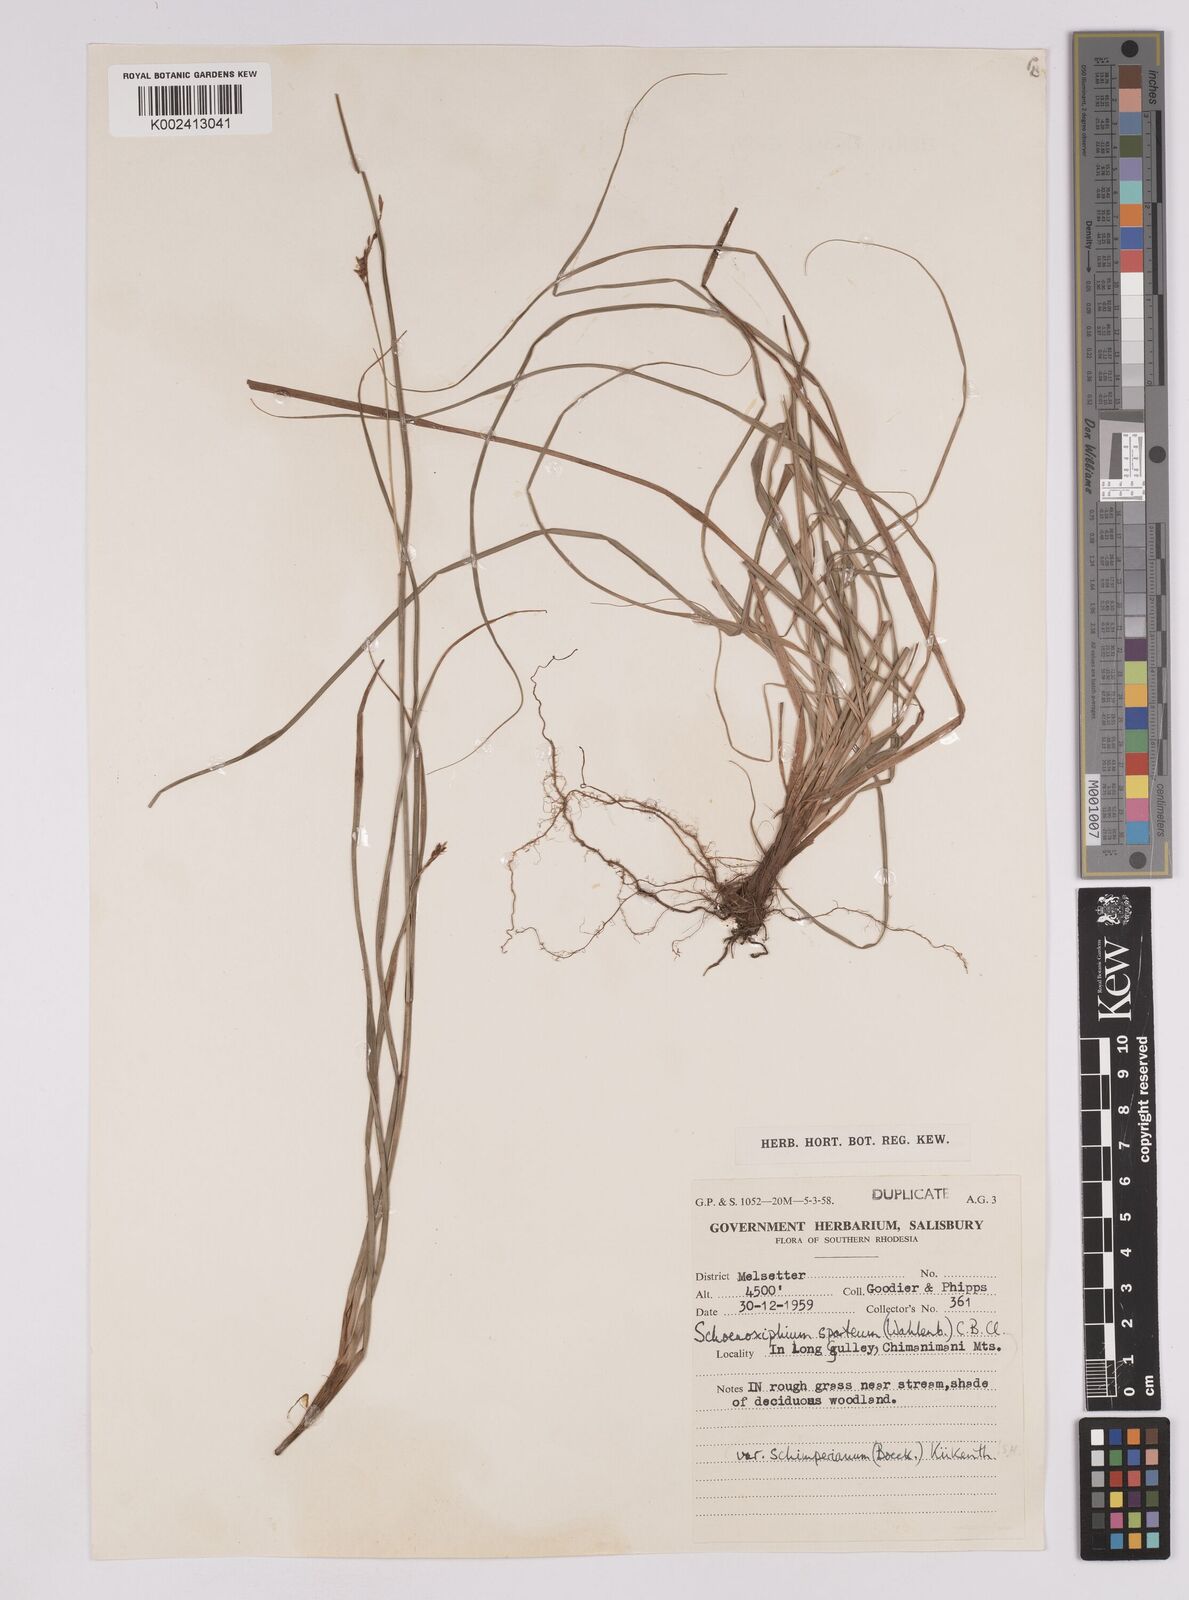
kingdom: Plantae
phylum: Tracheophyta
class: Liliopsida
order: Poales
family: Cyperaceae
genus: Carex
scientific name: Carex spartea
